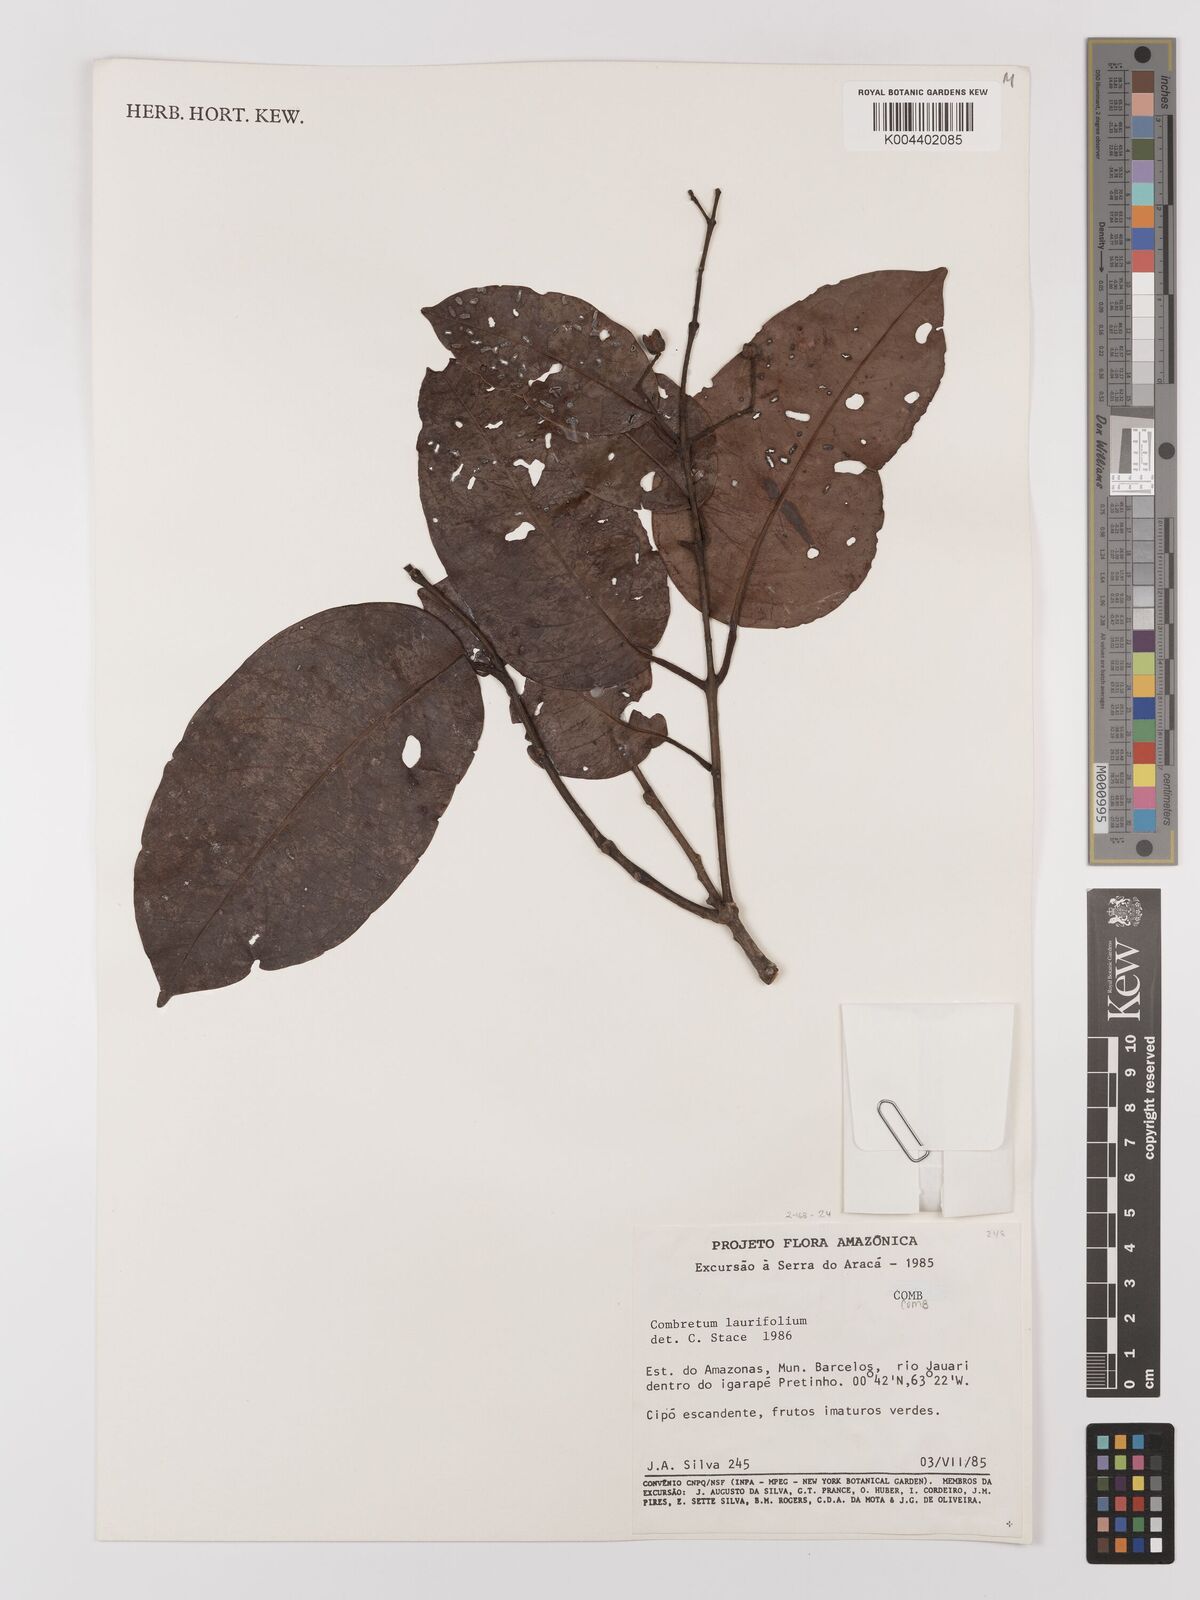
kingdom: Plantae
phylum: Tracheophyta
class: Magnoliopsida
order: Myrtales
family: Combretaceae
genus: Combretum
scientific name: Combretum
